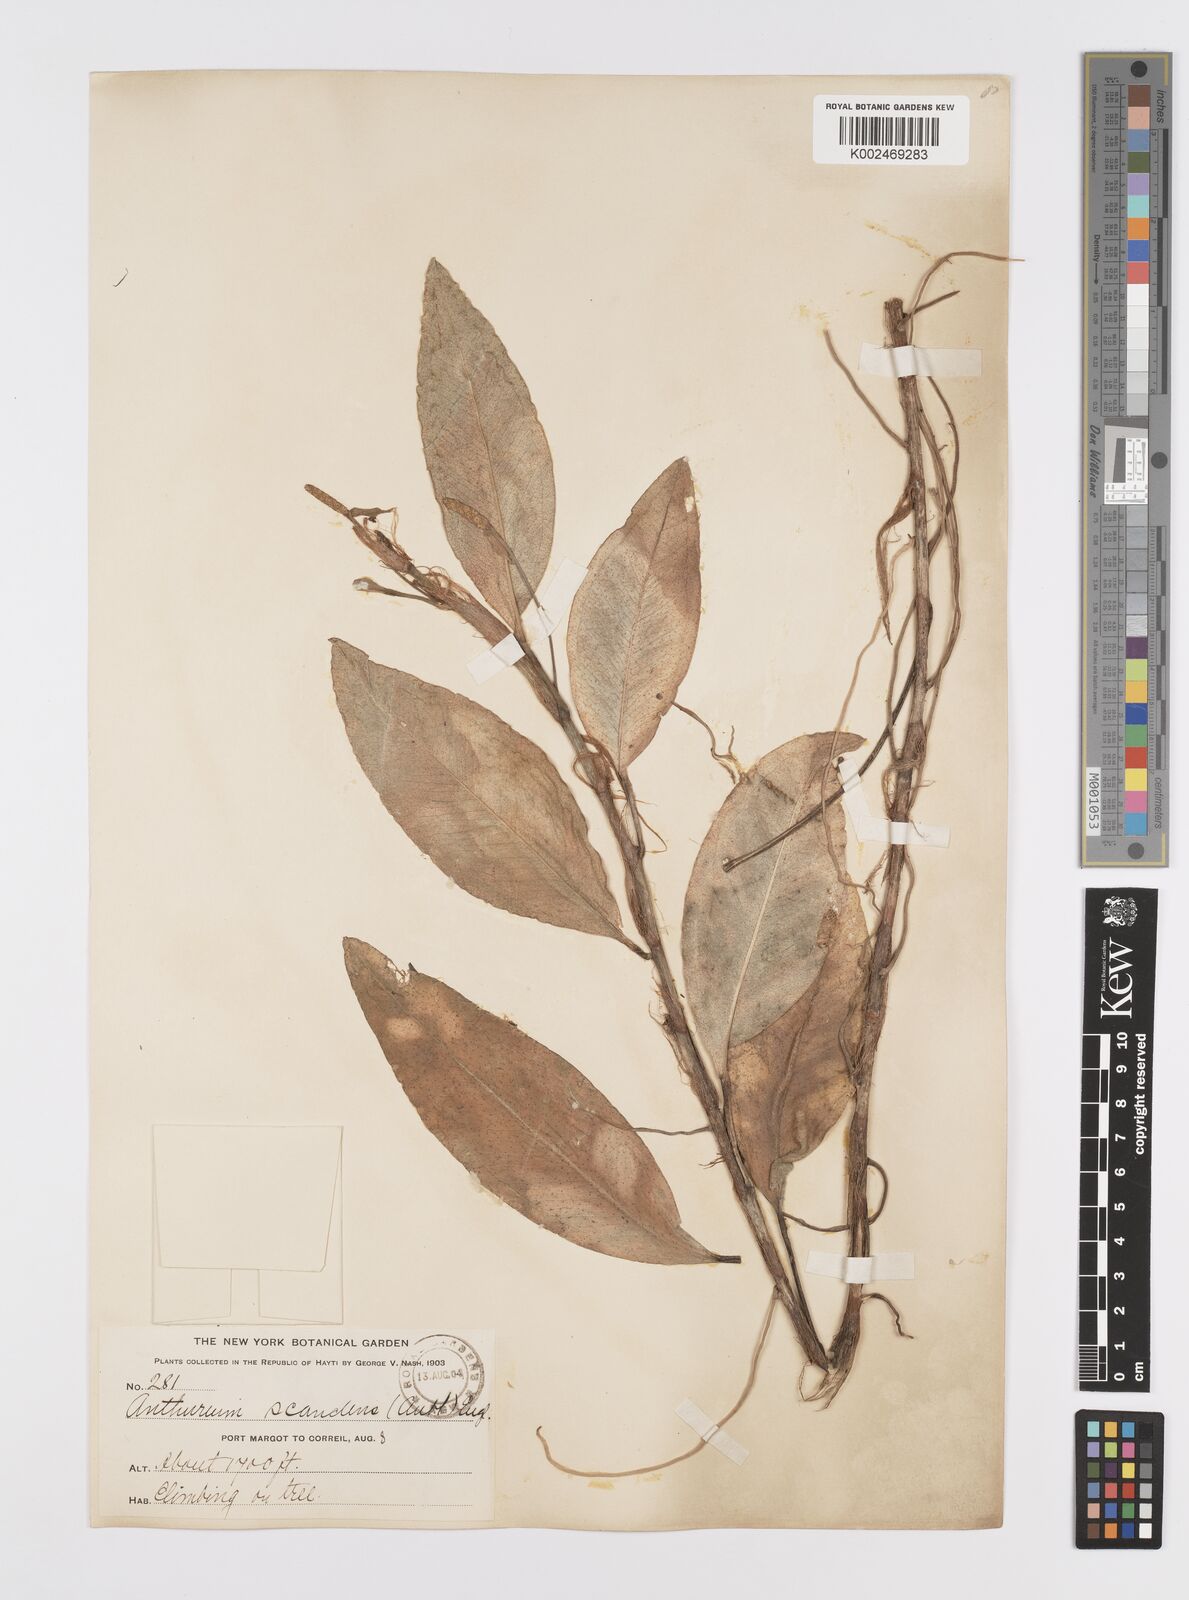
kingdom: Plantae
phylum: Tracheophyta
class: Liliopsida
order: Alismatales
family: Araceae
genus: Anthurium
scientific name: Anthurium scandens
